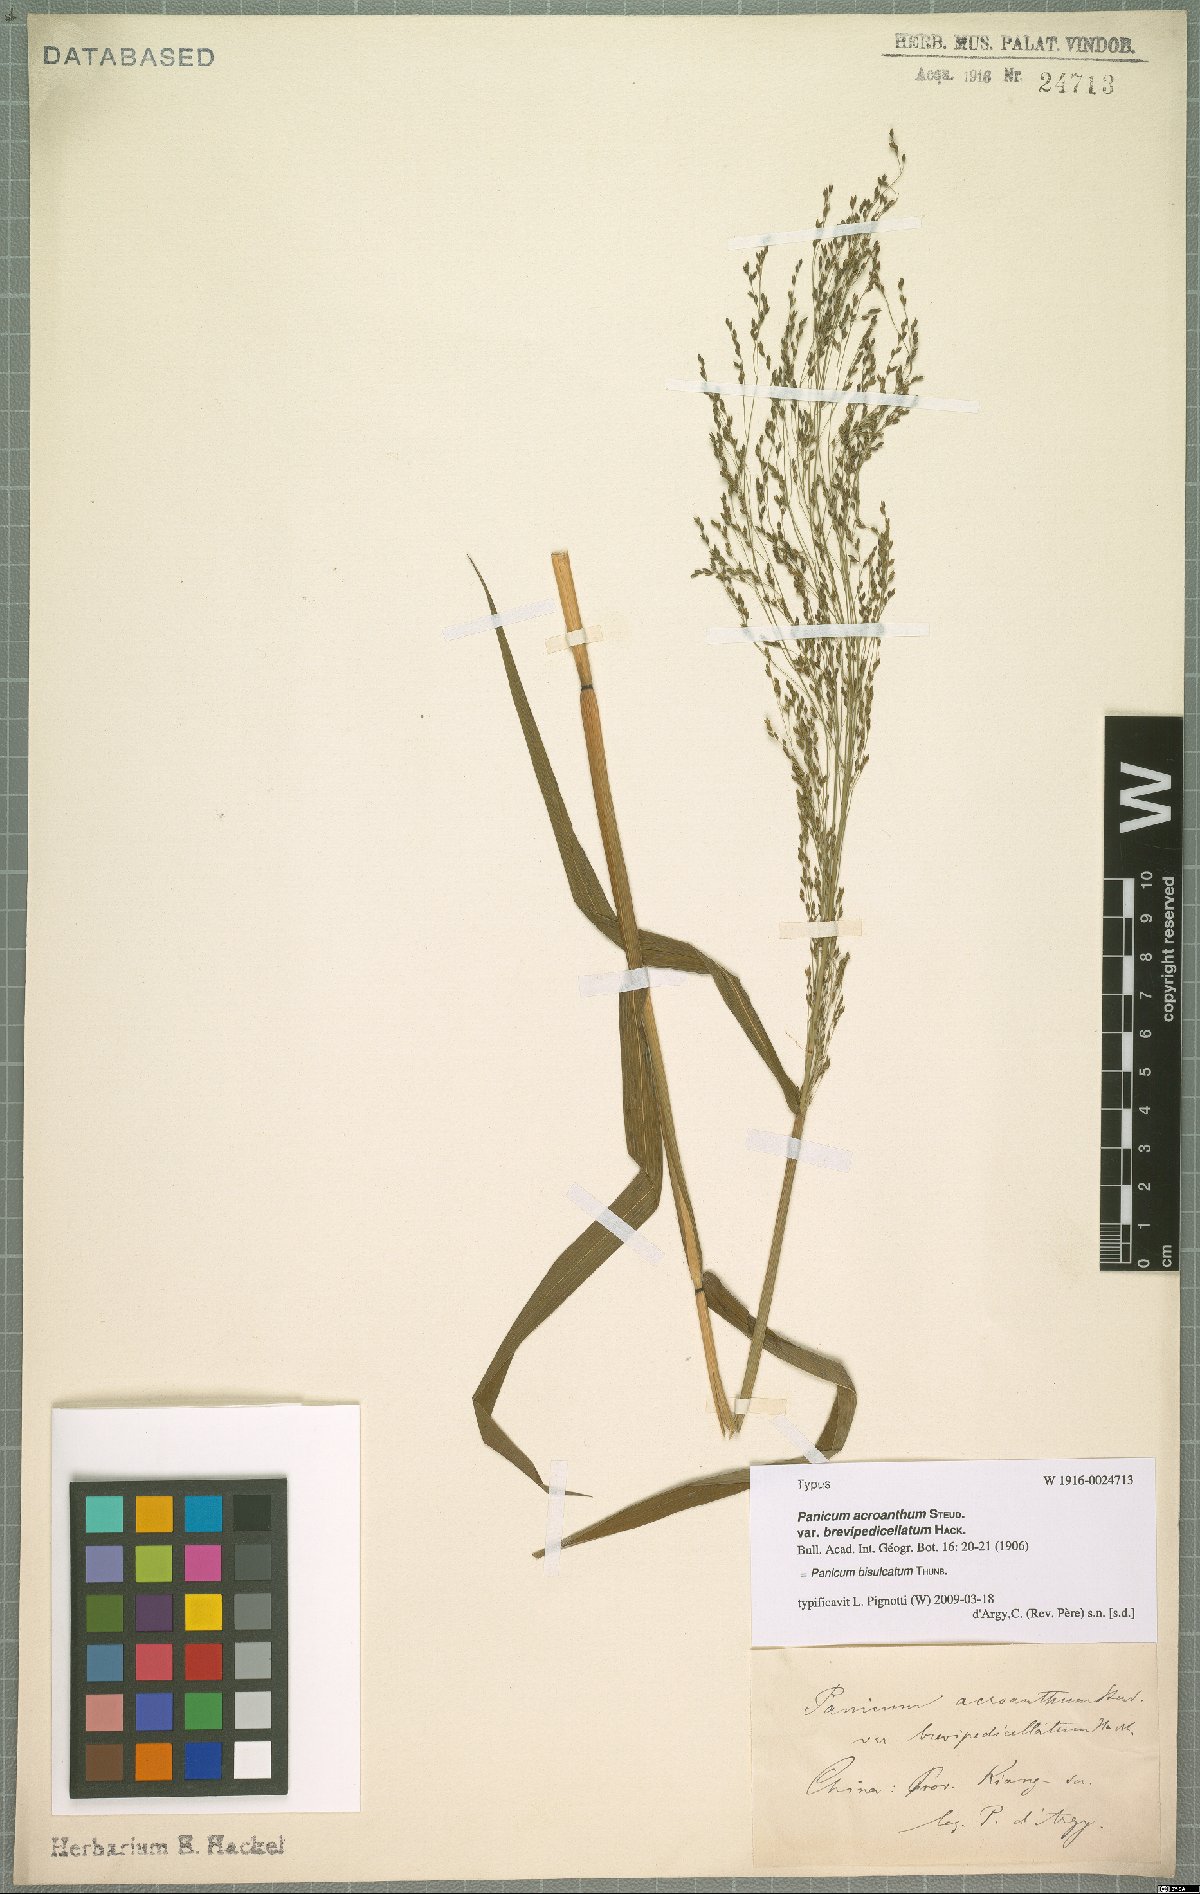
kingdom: Plantae
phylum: Tracheophyta
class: Liliopsida
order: Poales
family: Poaceae
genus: Panicum
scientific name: Panicum bisulcatum
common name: Japanese panicgrass
